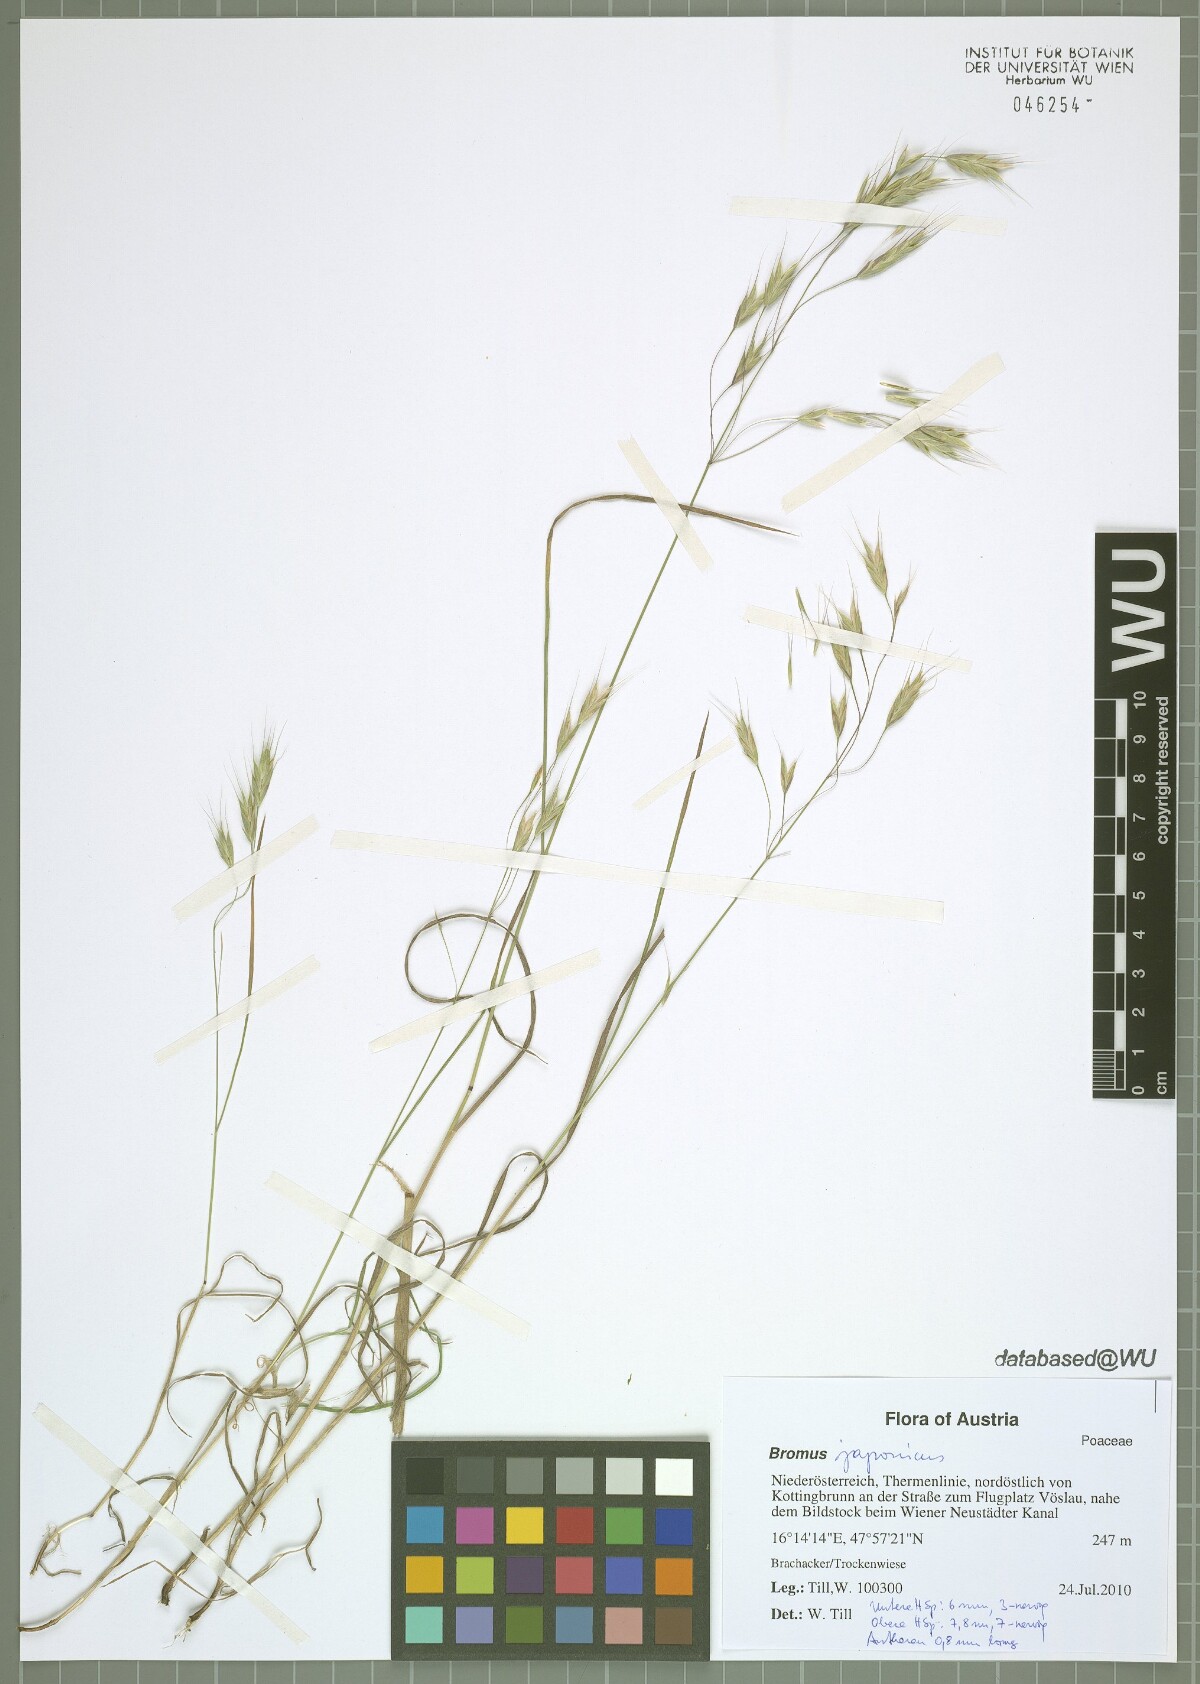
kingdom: Plantae
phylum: Tracheophyta
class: Liliopsida
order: Poales
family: Poaceae
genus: Bromus
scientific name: Bromus japonicus
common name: Japanese brome
